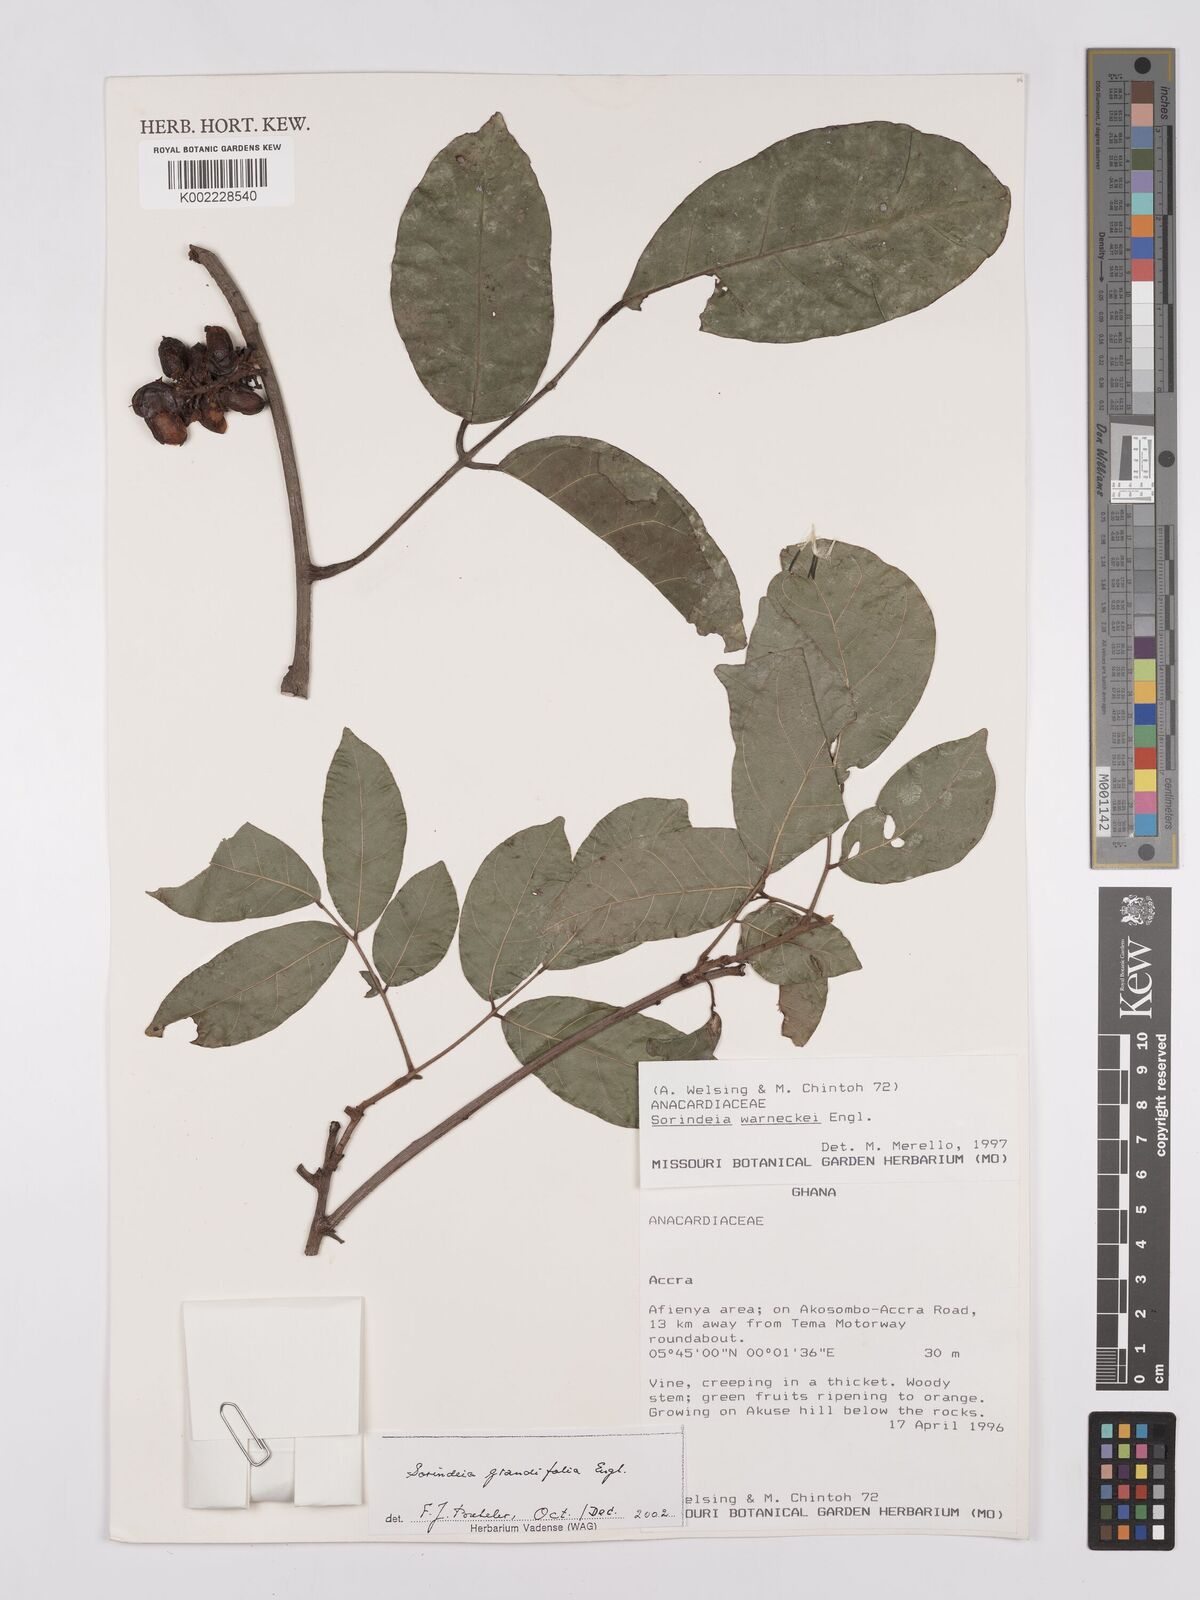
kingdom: Plantae
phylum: Tracheophyta
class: Magnoliopsida
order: Sapindales
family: Anacardiaceae
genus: Sorindeia
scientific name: Sorindeia grandifolia
